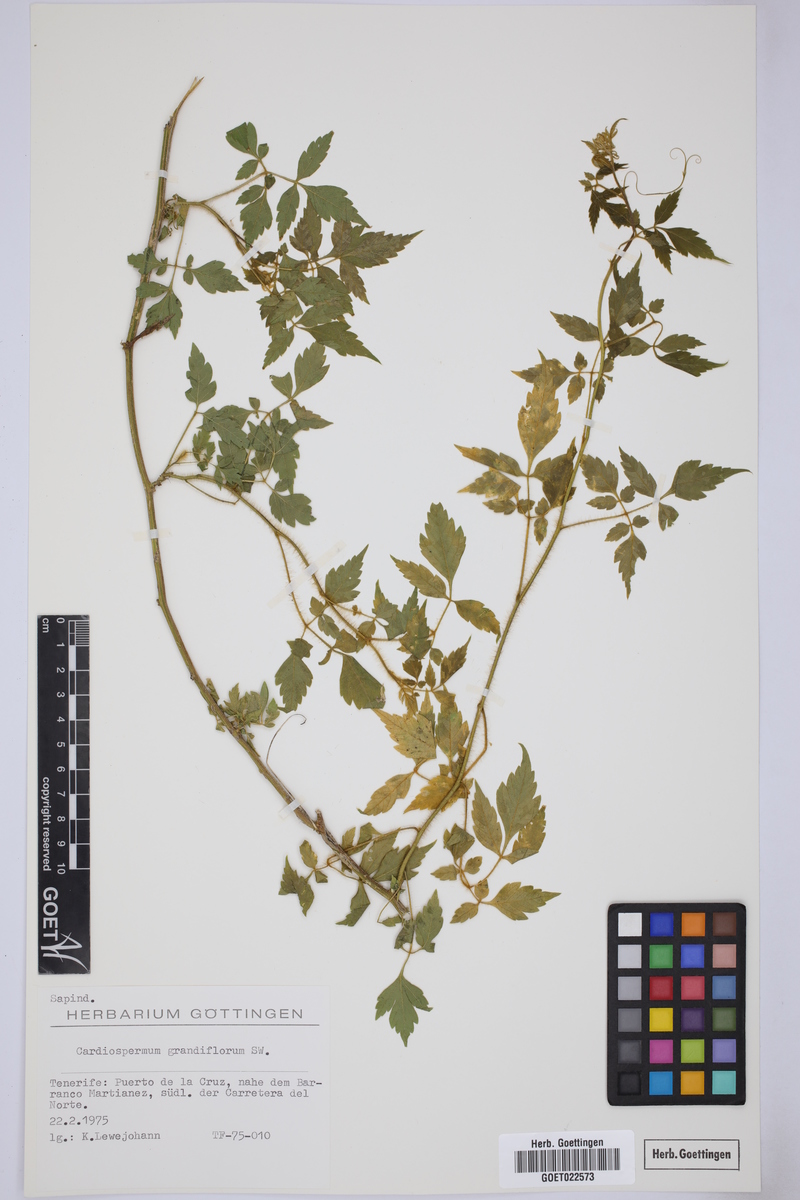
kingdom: Plantae
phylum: Tracheophyta
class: Magnoliopsida
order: Sapindales
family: Sapindaceae
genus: Cardiospermum
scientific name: Cardiospermum grandiflorum
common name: Balloon vine
